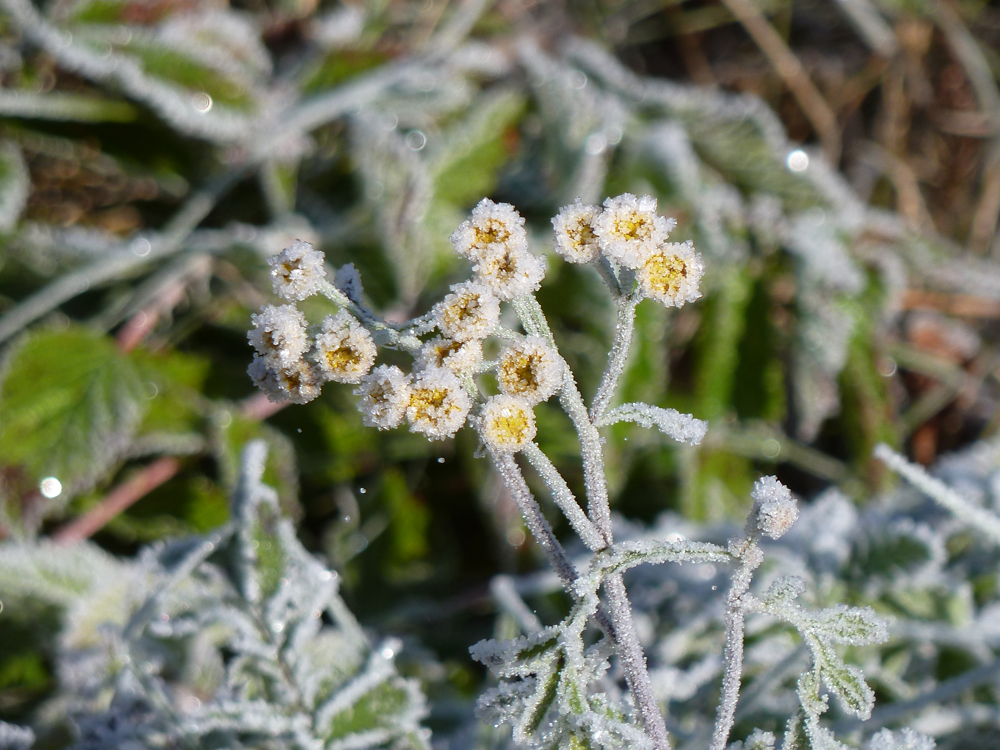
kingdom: Plantae
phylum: Tracheophyta
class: Magnoliopsida
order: Asterales
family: Asteraceae
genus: Tanacetum
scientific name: Tanacetum vulgare
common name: Common tansy
